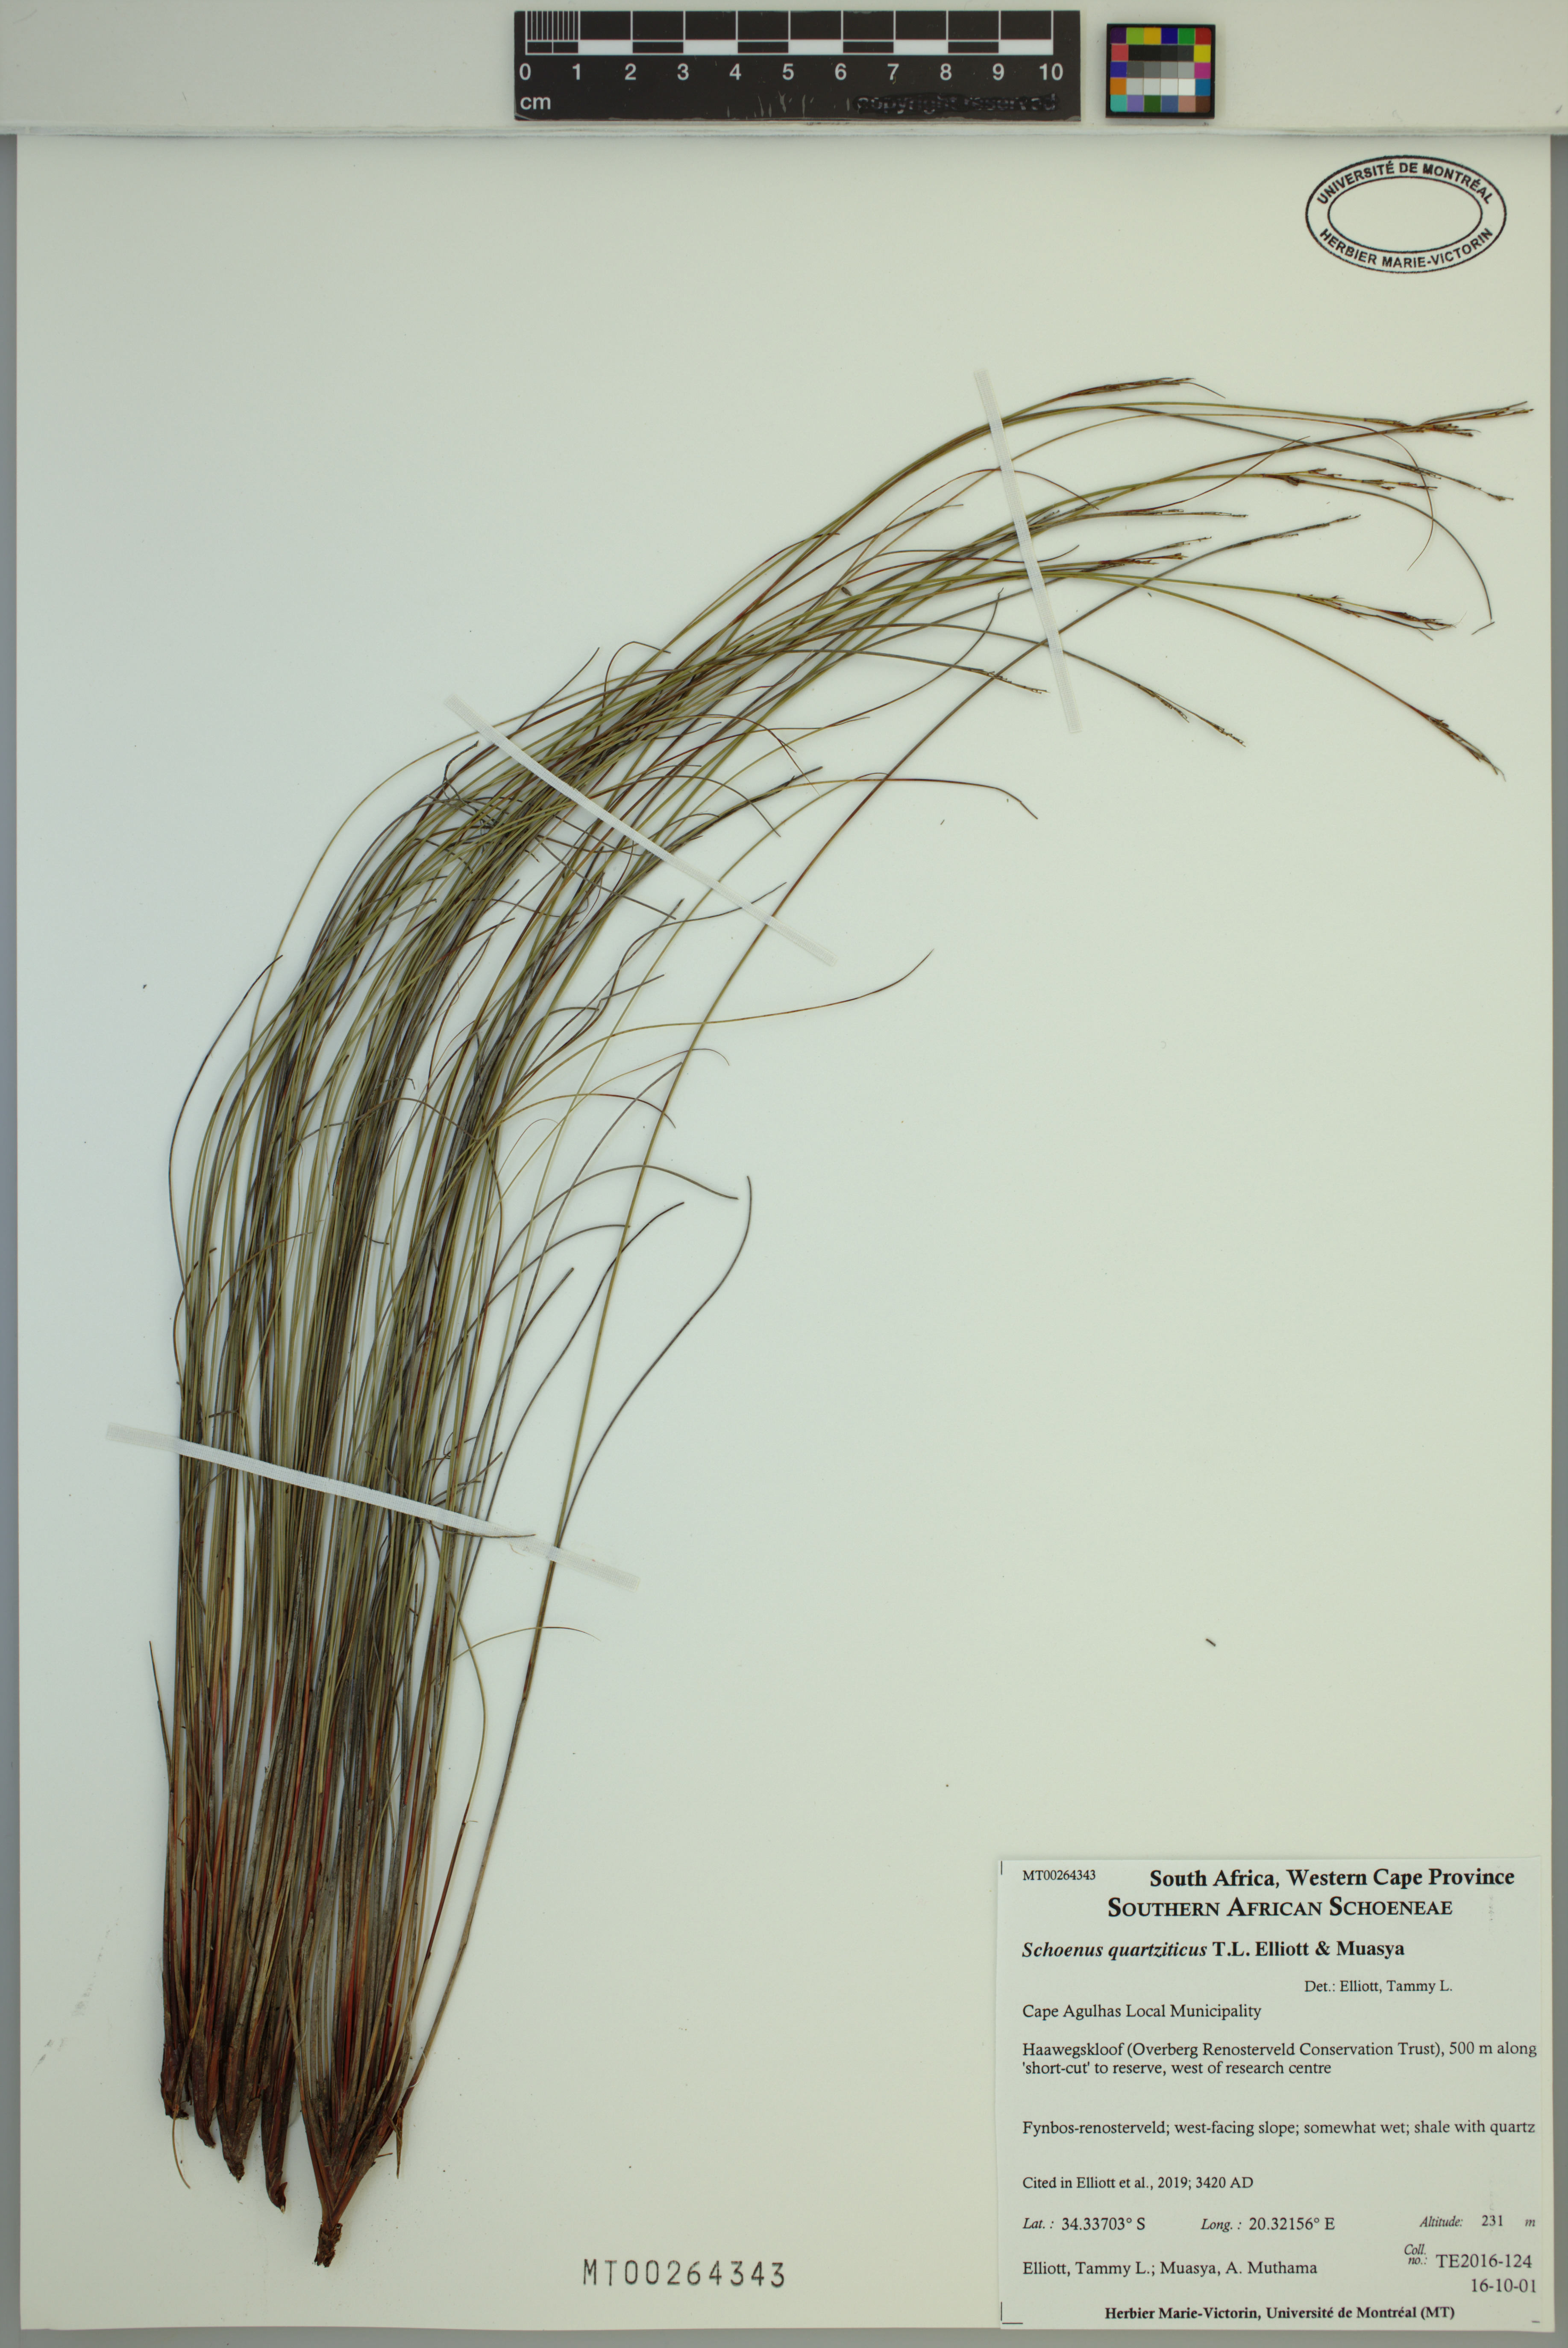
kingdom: Plantae
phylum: Tracheophyta
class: Liliopsida
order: Poales
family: Cyperaceae
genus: Schoenus
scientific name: Schoenus quartziticus
